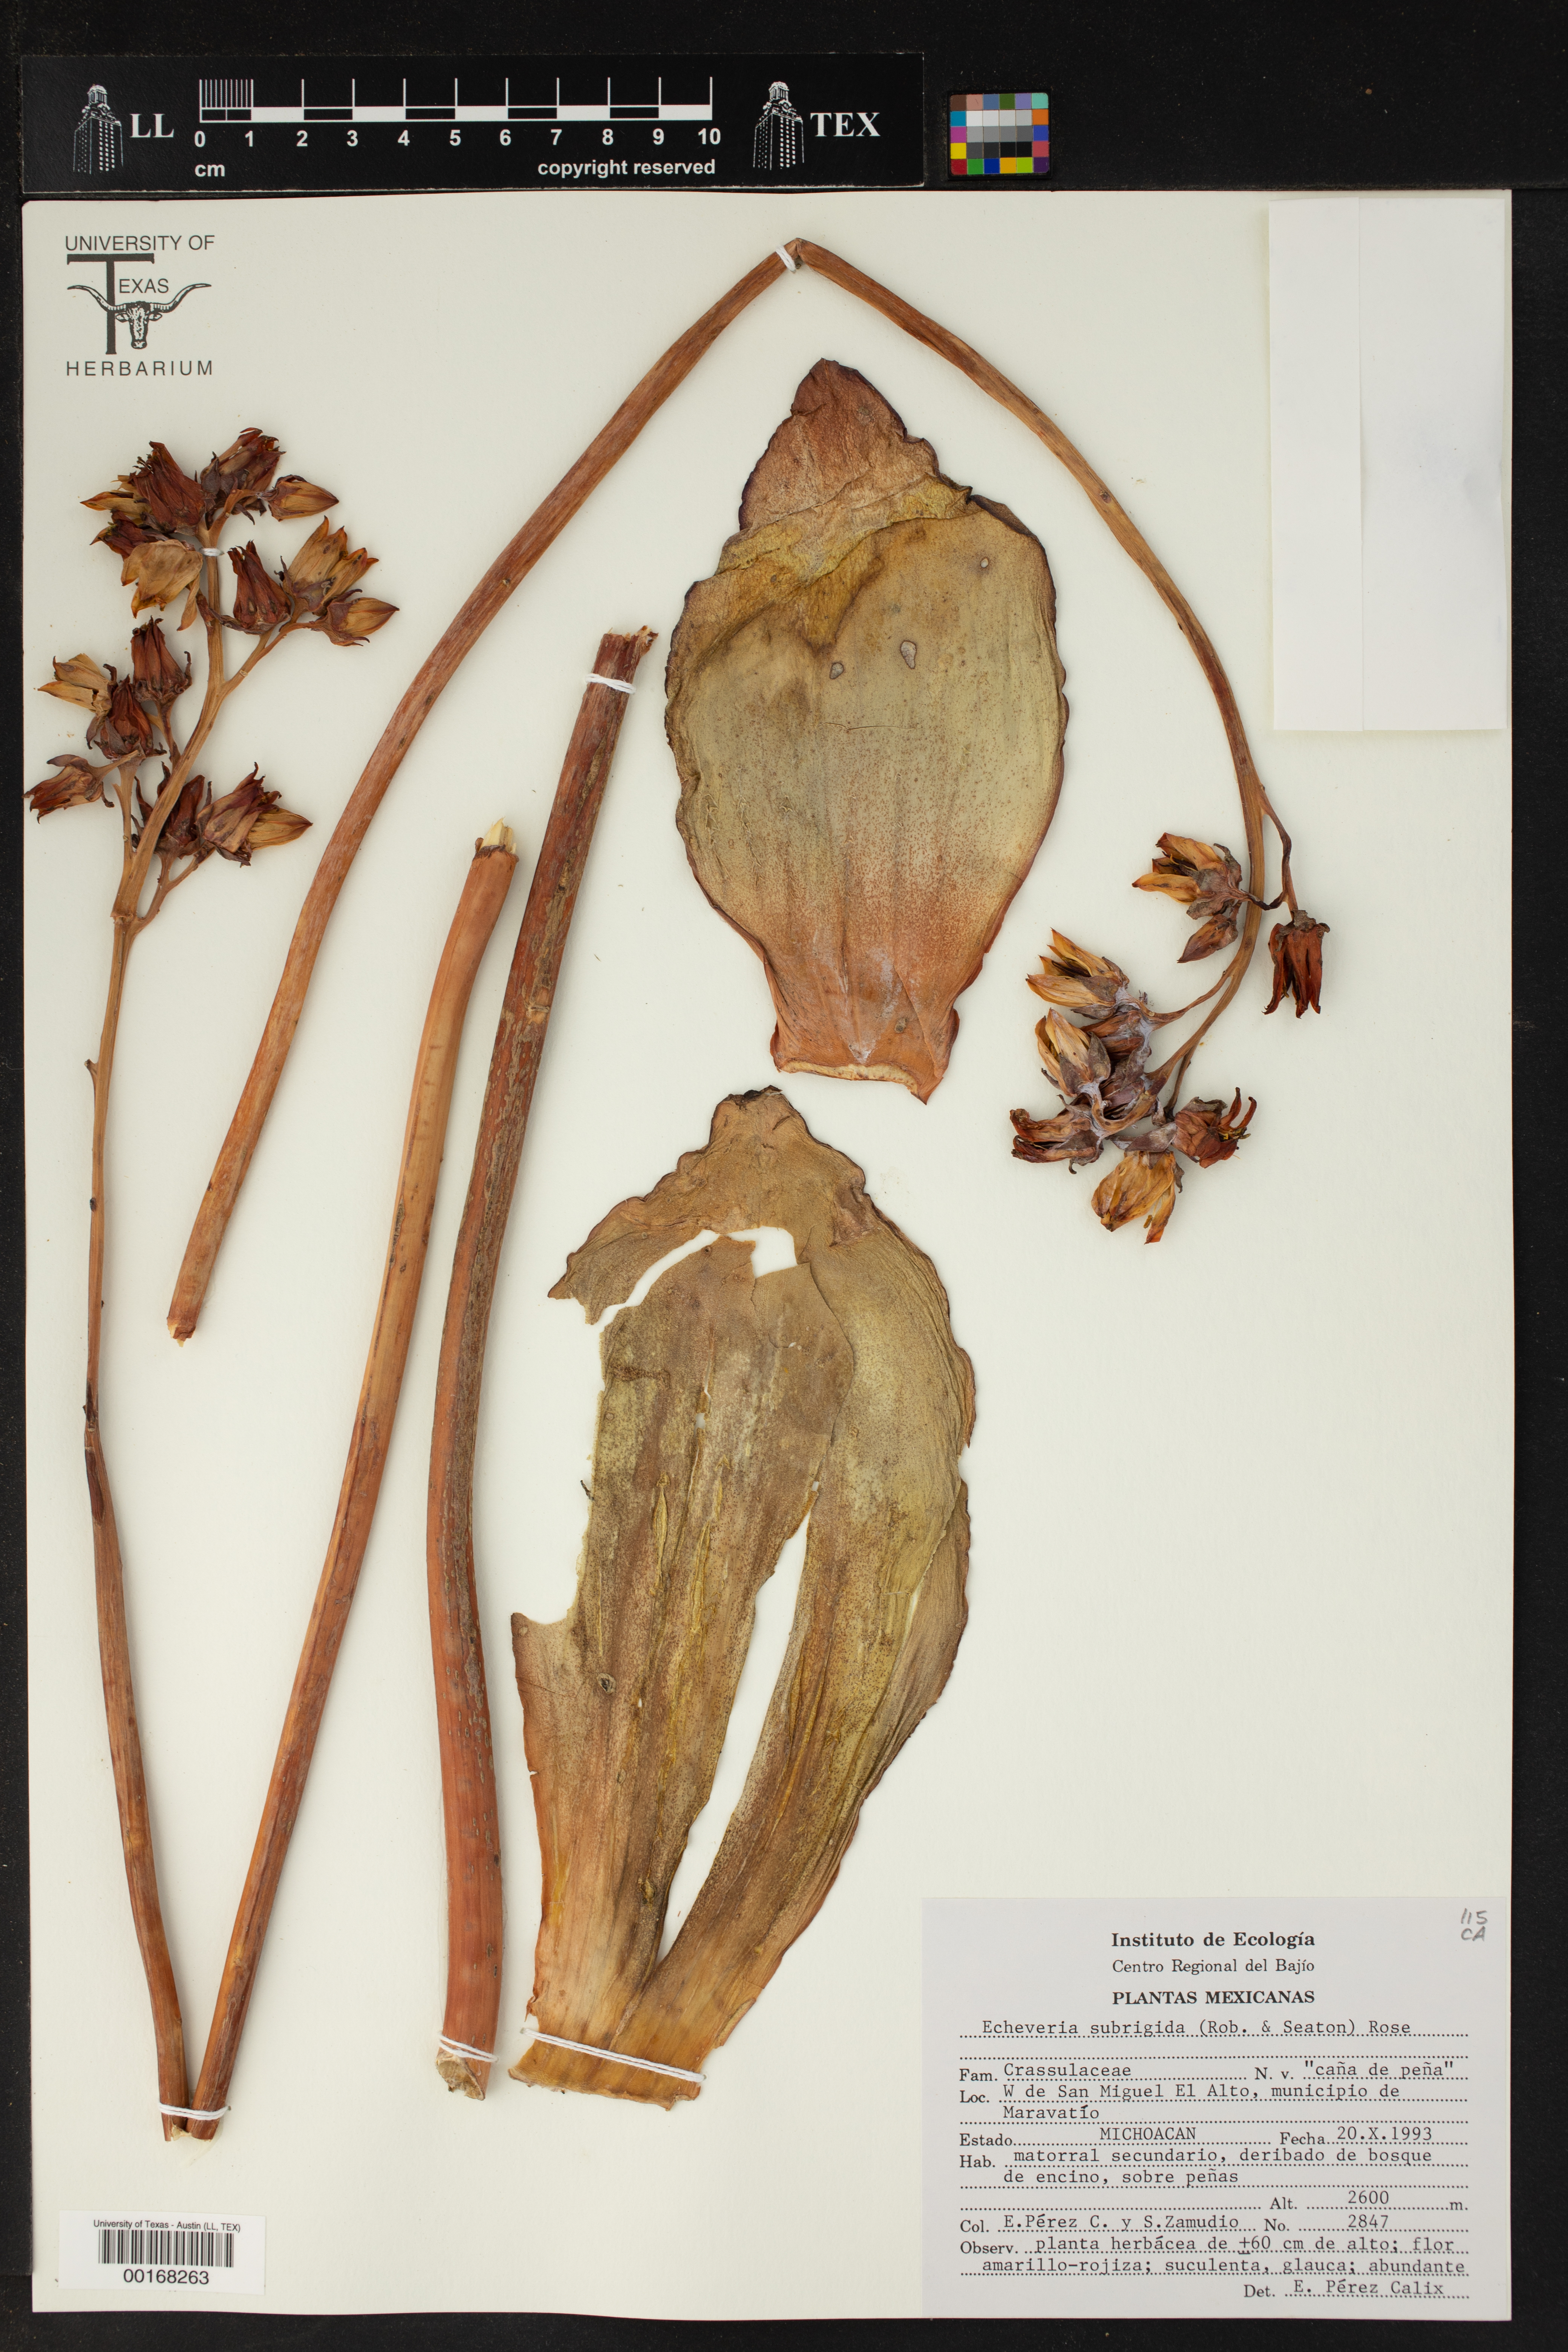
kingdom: Plantae
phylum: Tracheophyta
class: Magnoliopsida
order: Saxifragales
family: Crassulaceae
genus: Echeveria
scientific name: Echeveria subrigida
